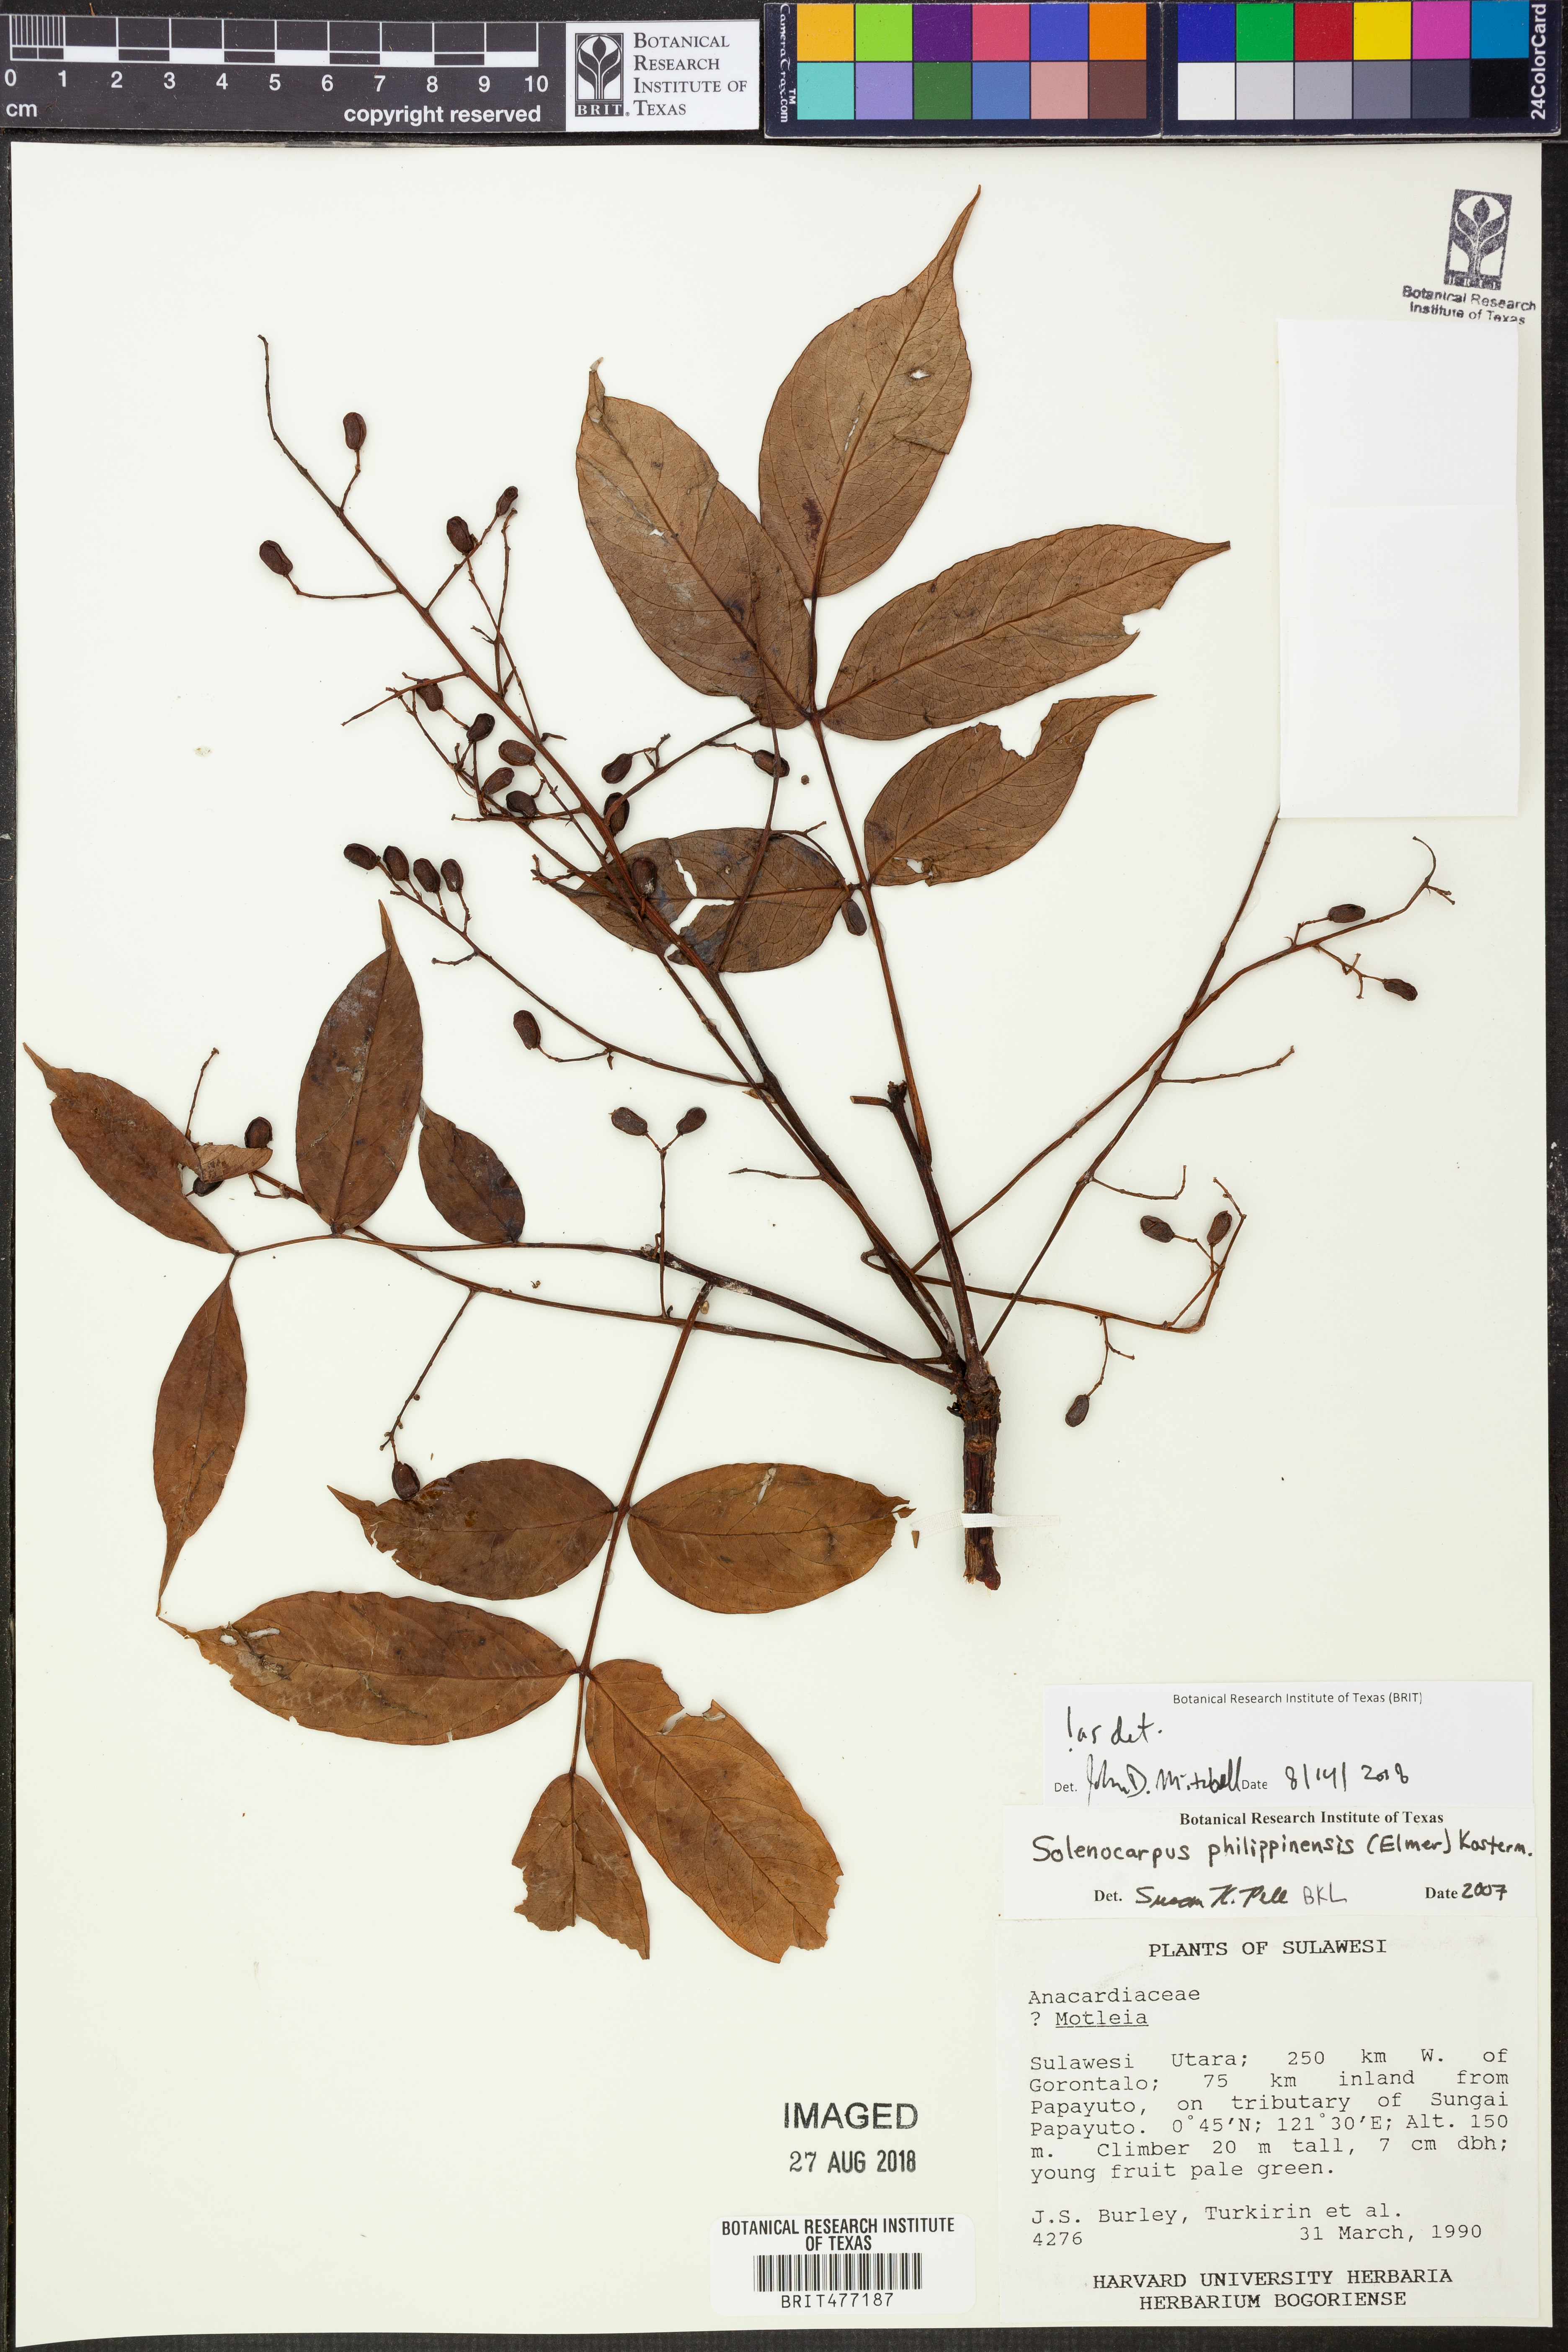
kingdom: Plantae
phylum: Tracheophyta
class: Magnoliopsida
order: Sapindales
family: Anacardiaceae
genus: Spondias
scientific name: Spondias philippinensis
